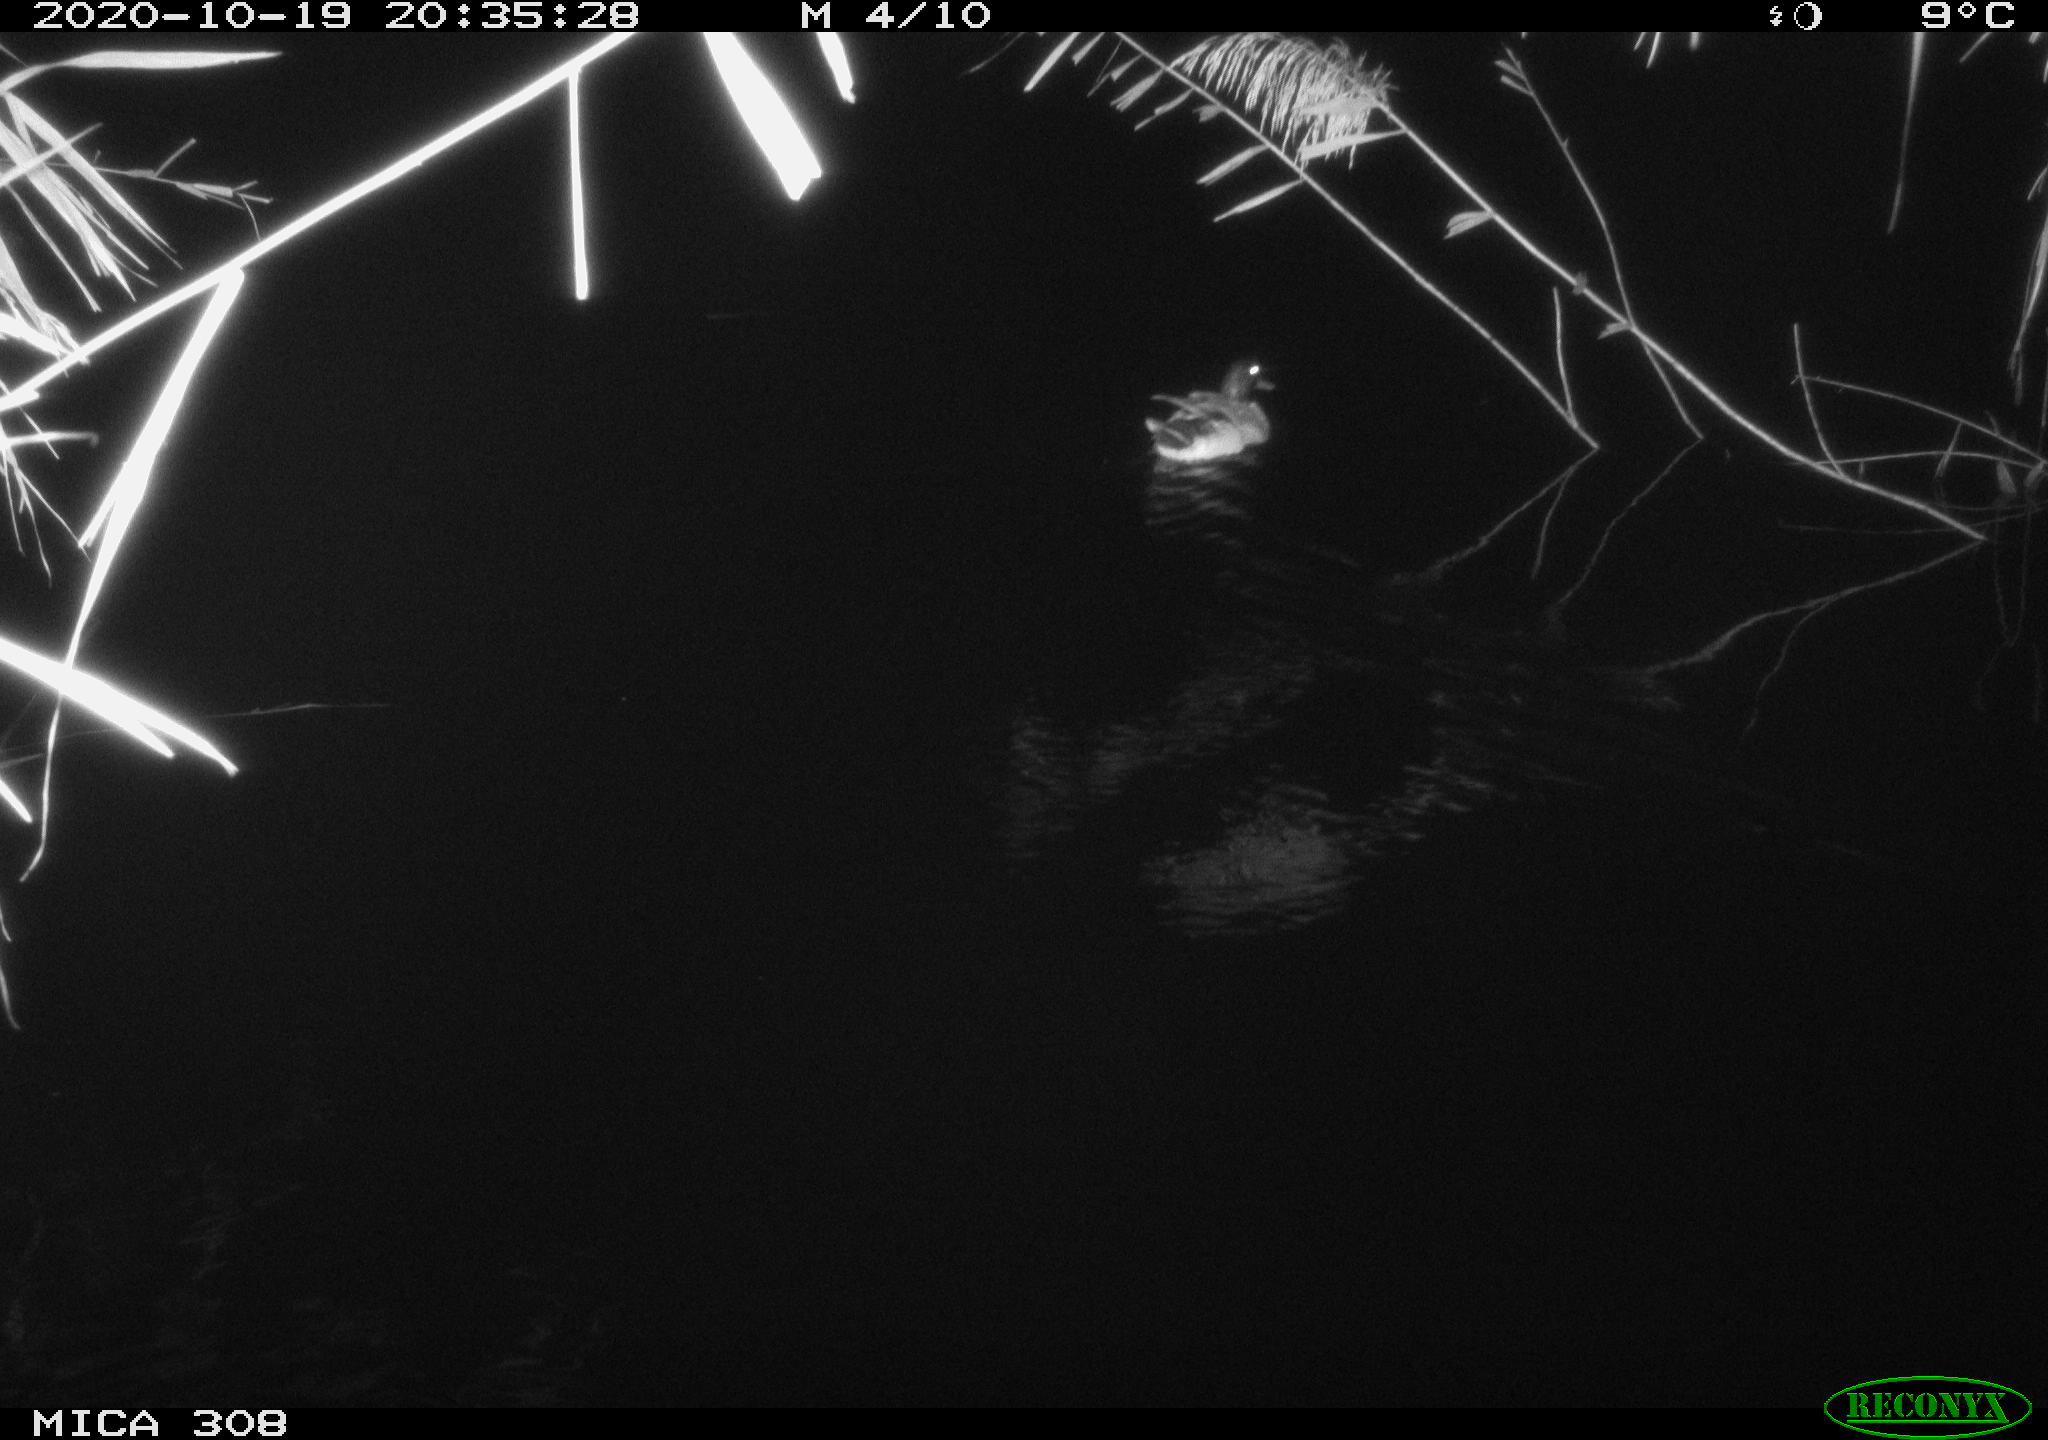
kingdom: Animalia
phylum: Chordata
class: Mammalia
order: Rodentia
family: Muridae
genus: Rattus
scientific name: Rattus norvegicus
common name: Brown rat
